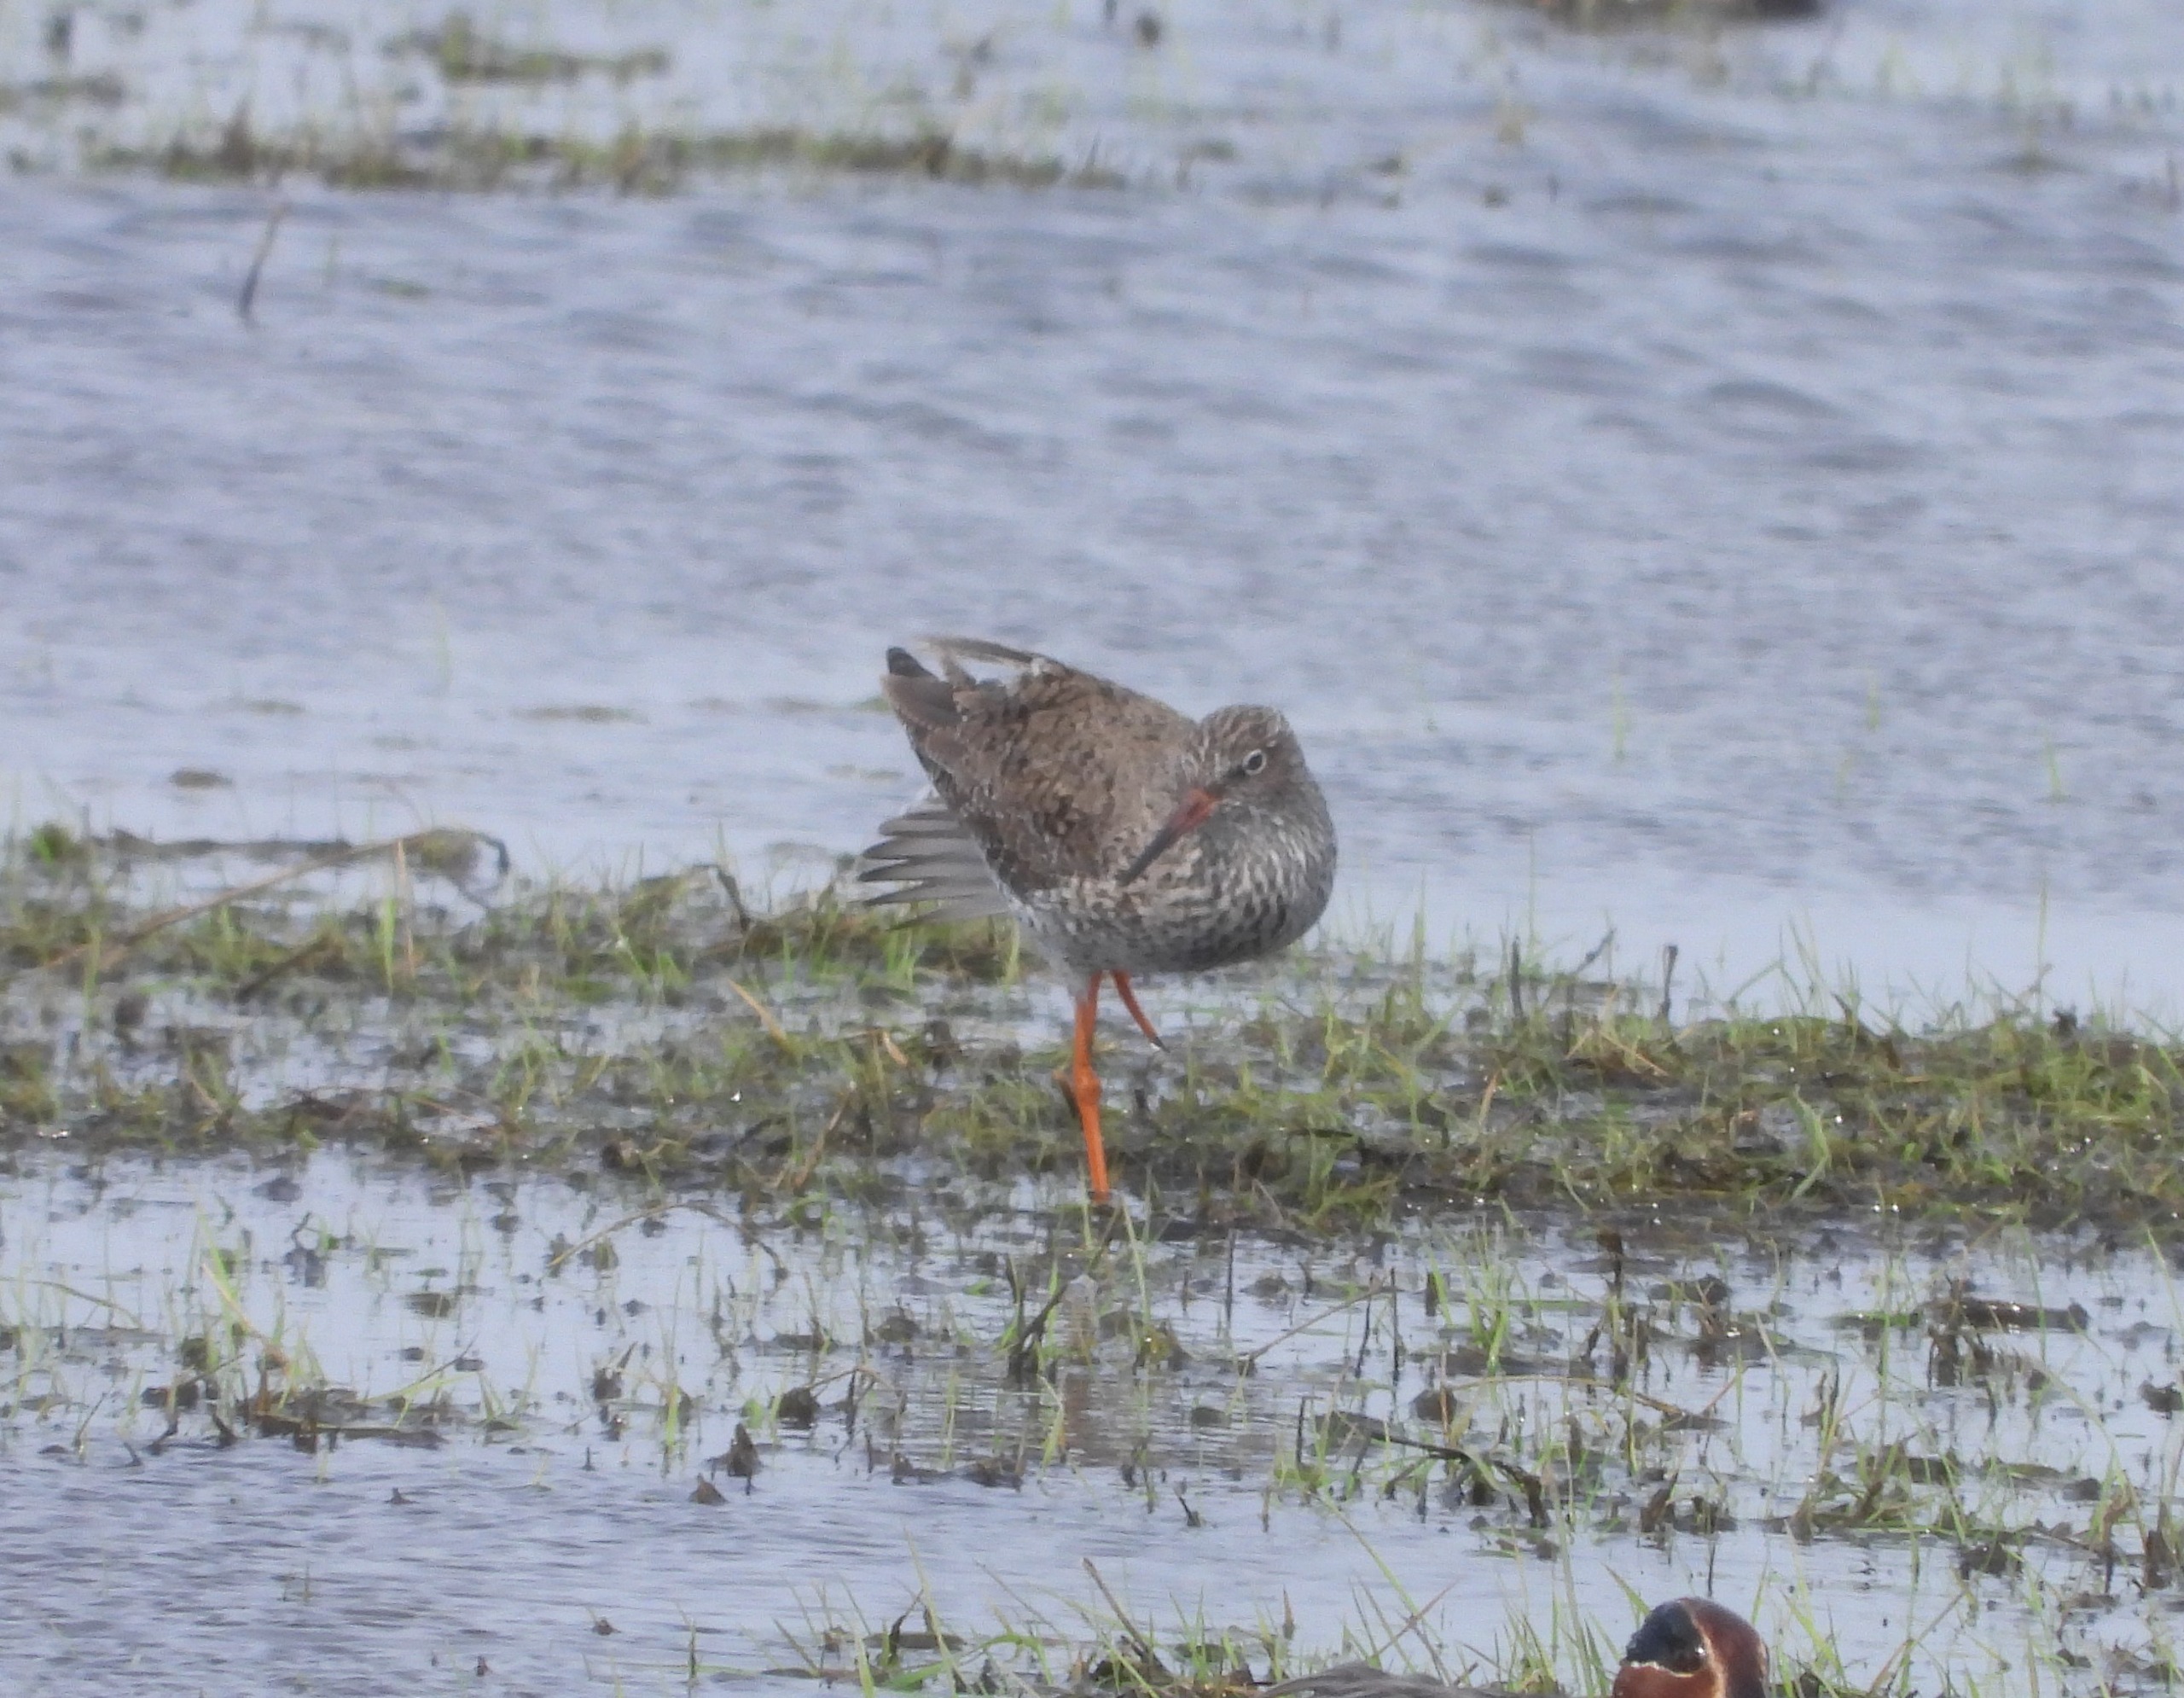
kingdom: Animalia
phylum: Chordata
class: Aves
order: Charadriiformes
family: Scolopacidae
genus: Tringa
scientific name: Tringa totanus
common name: Rødben
